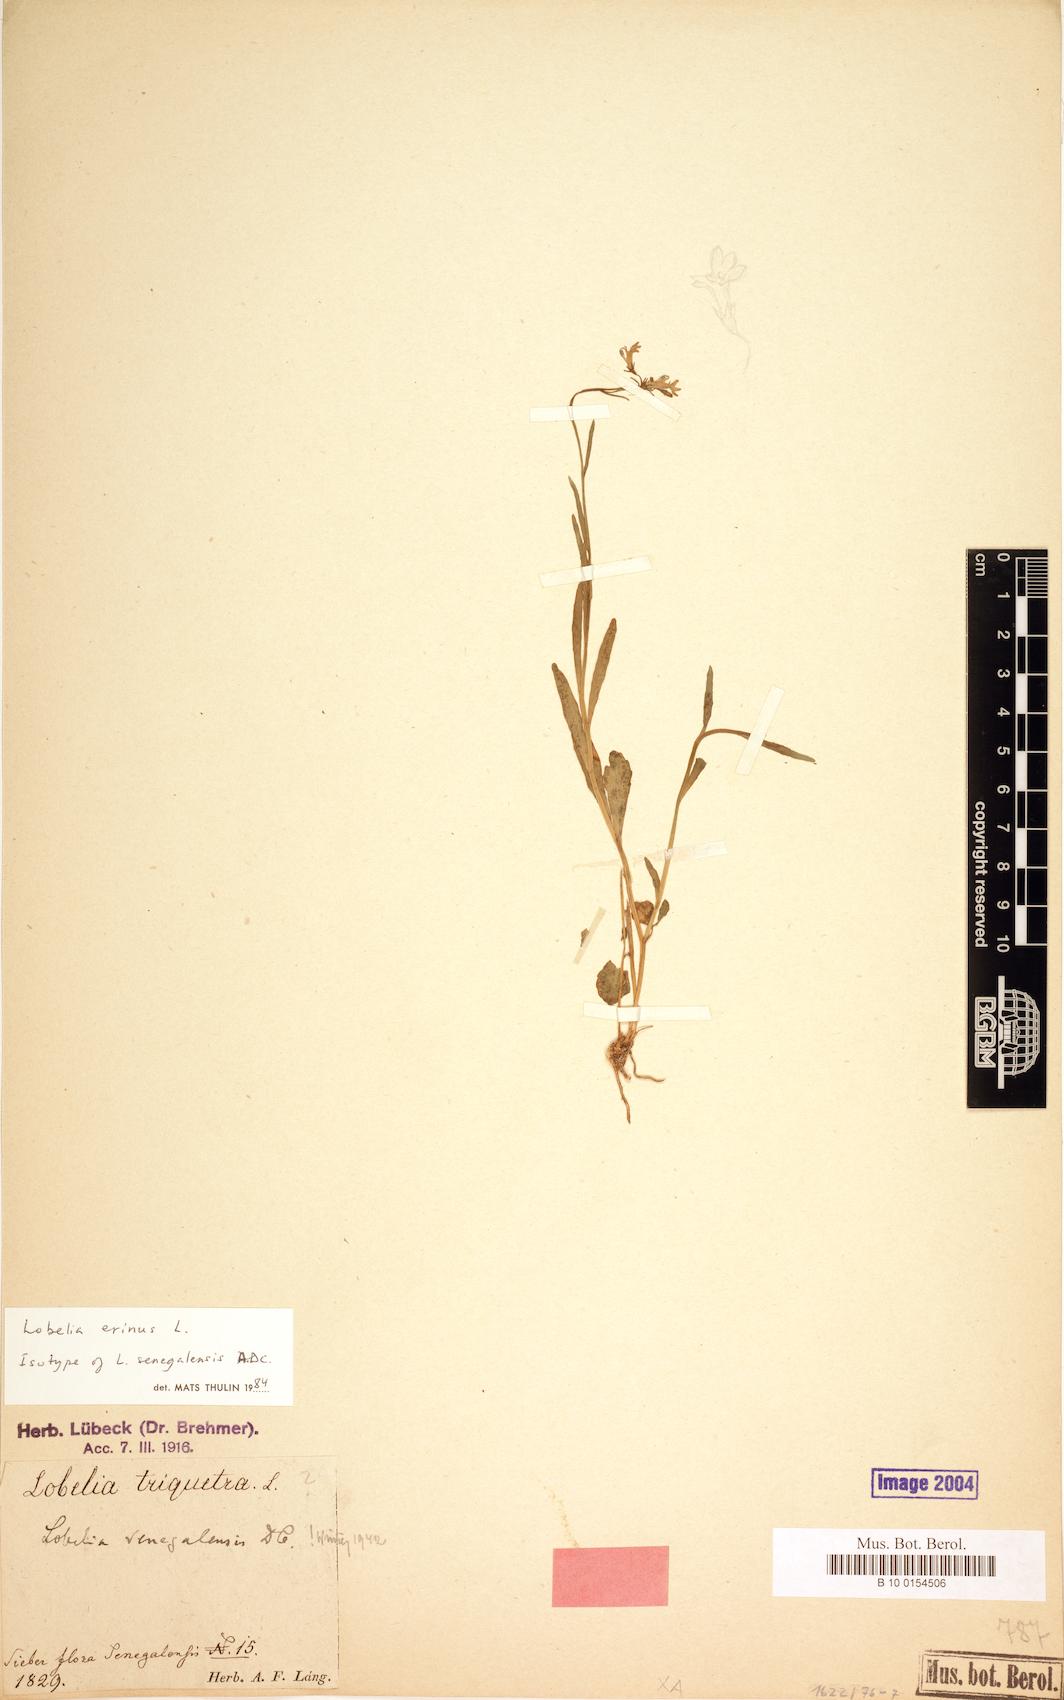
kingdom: Plantae
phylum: Tracheophyta
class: Magnoliopsida
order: Asterales
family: Campanulaceae
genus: Lobelia
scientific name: Lobelia erinus
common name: Edging lobelia
